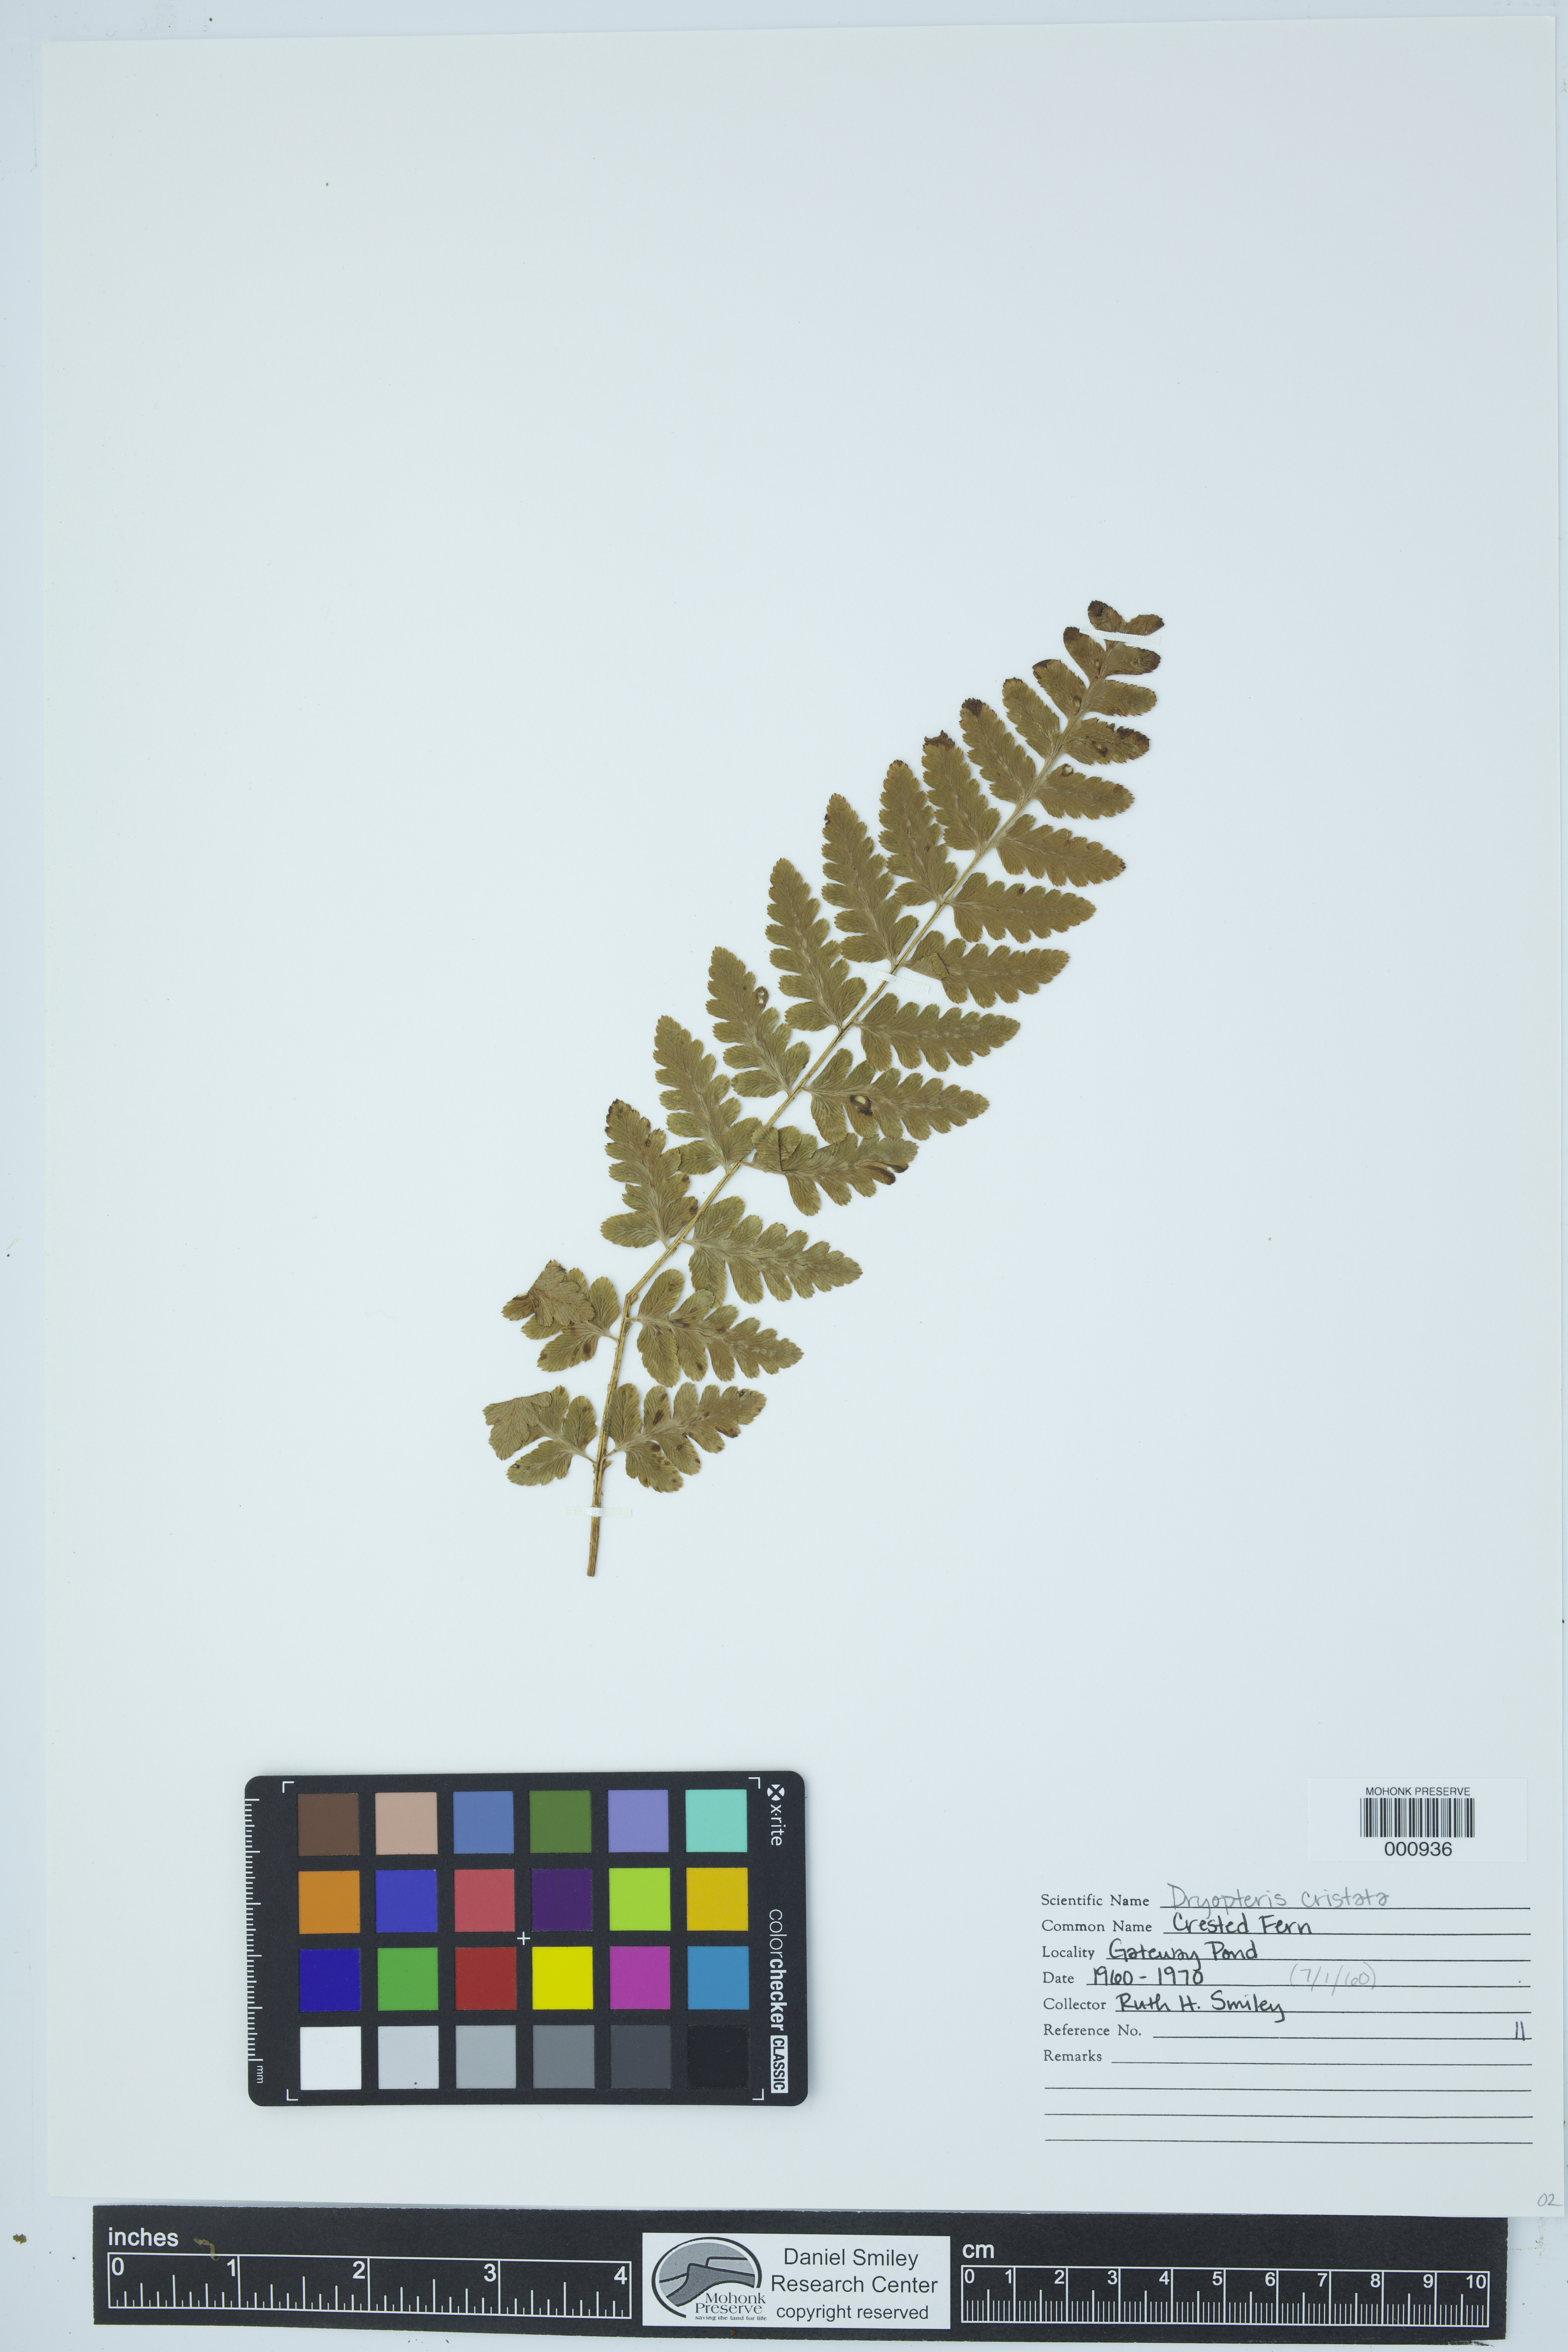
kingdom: Plantae
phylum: Tracheophyta
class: Polypodiopsida
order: Polypodiales
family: Dryopteridaceae
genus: Dryopteris
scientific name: Dryopteris cristata
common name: Crested wood fern
